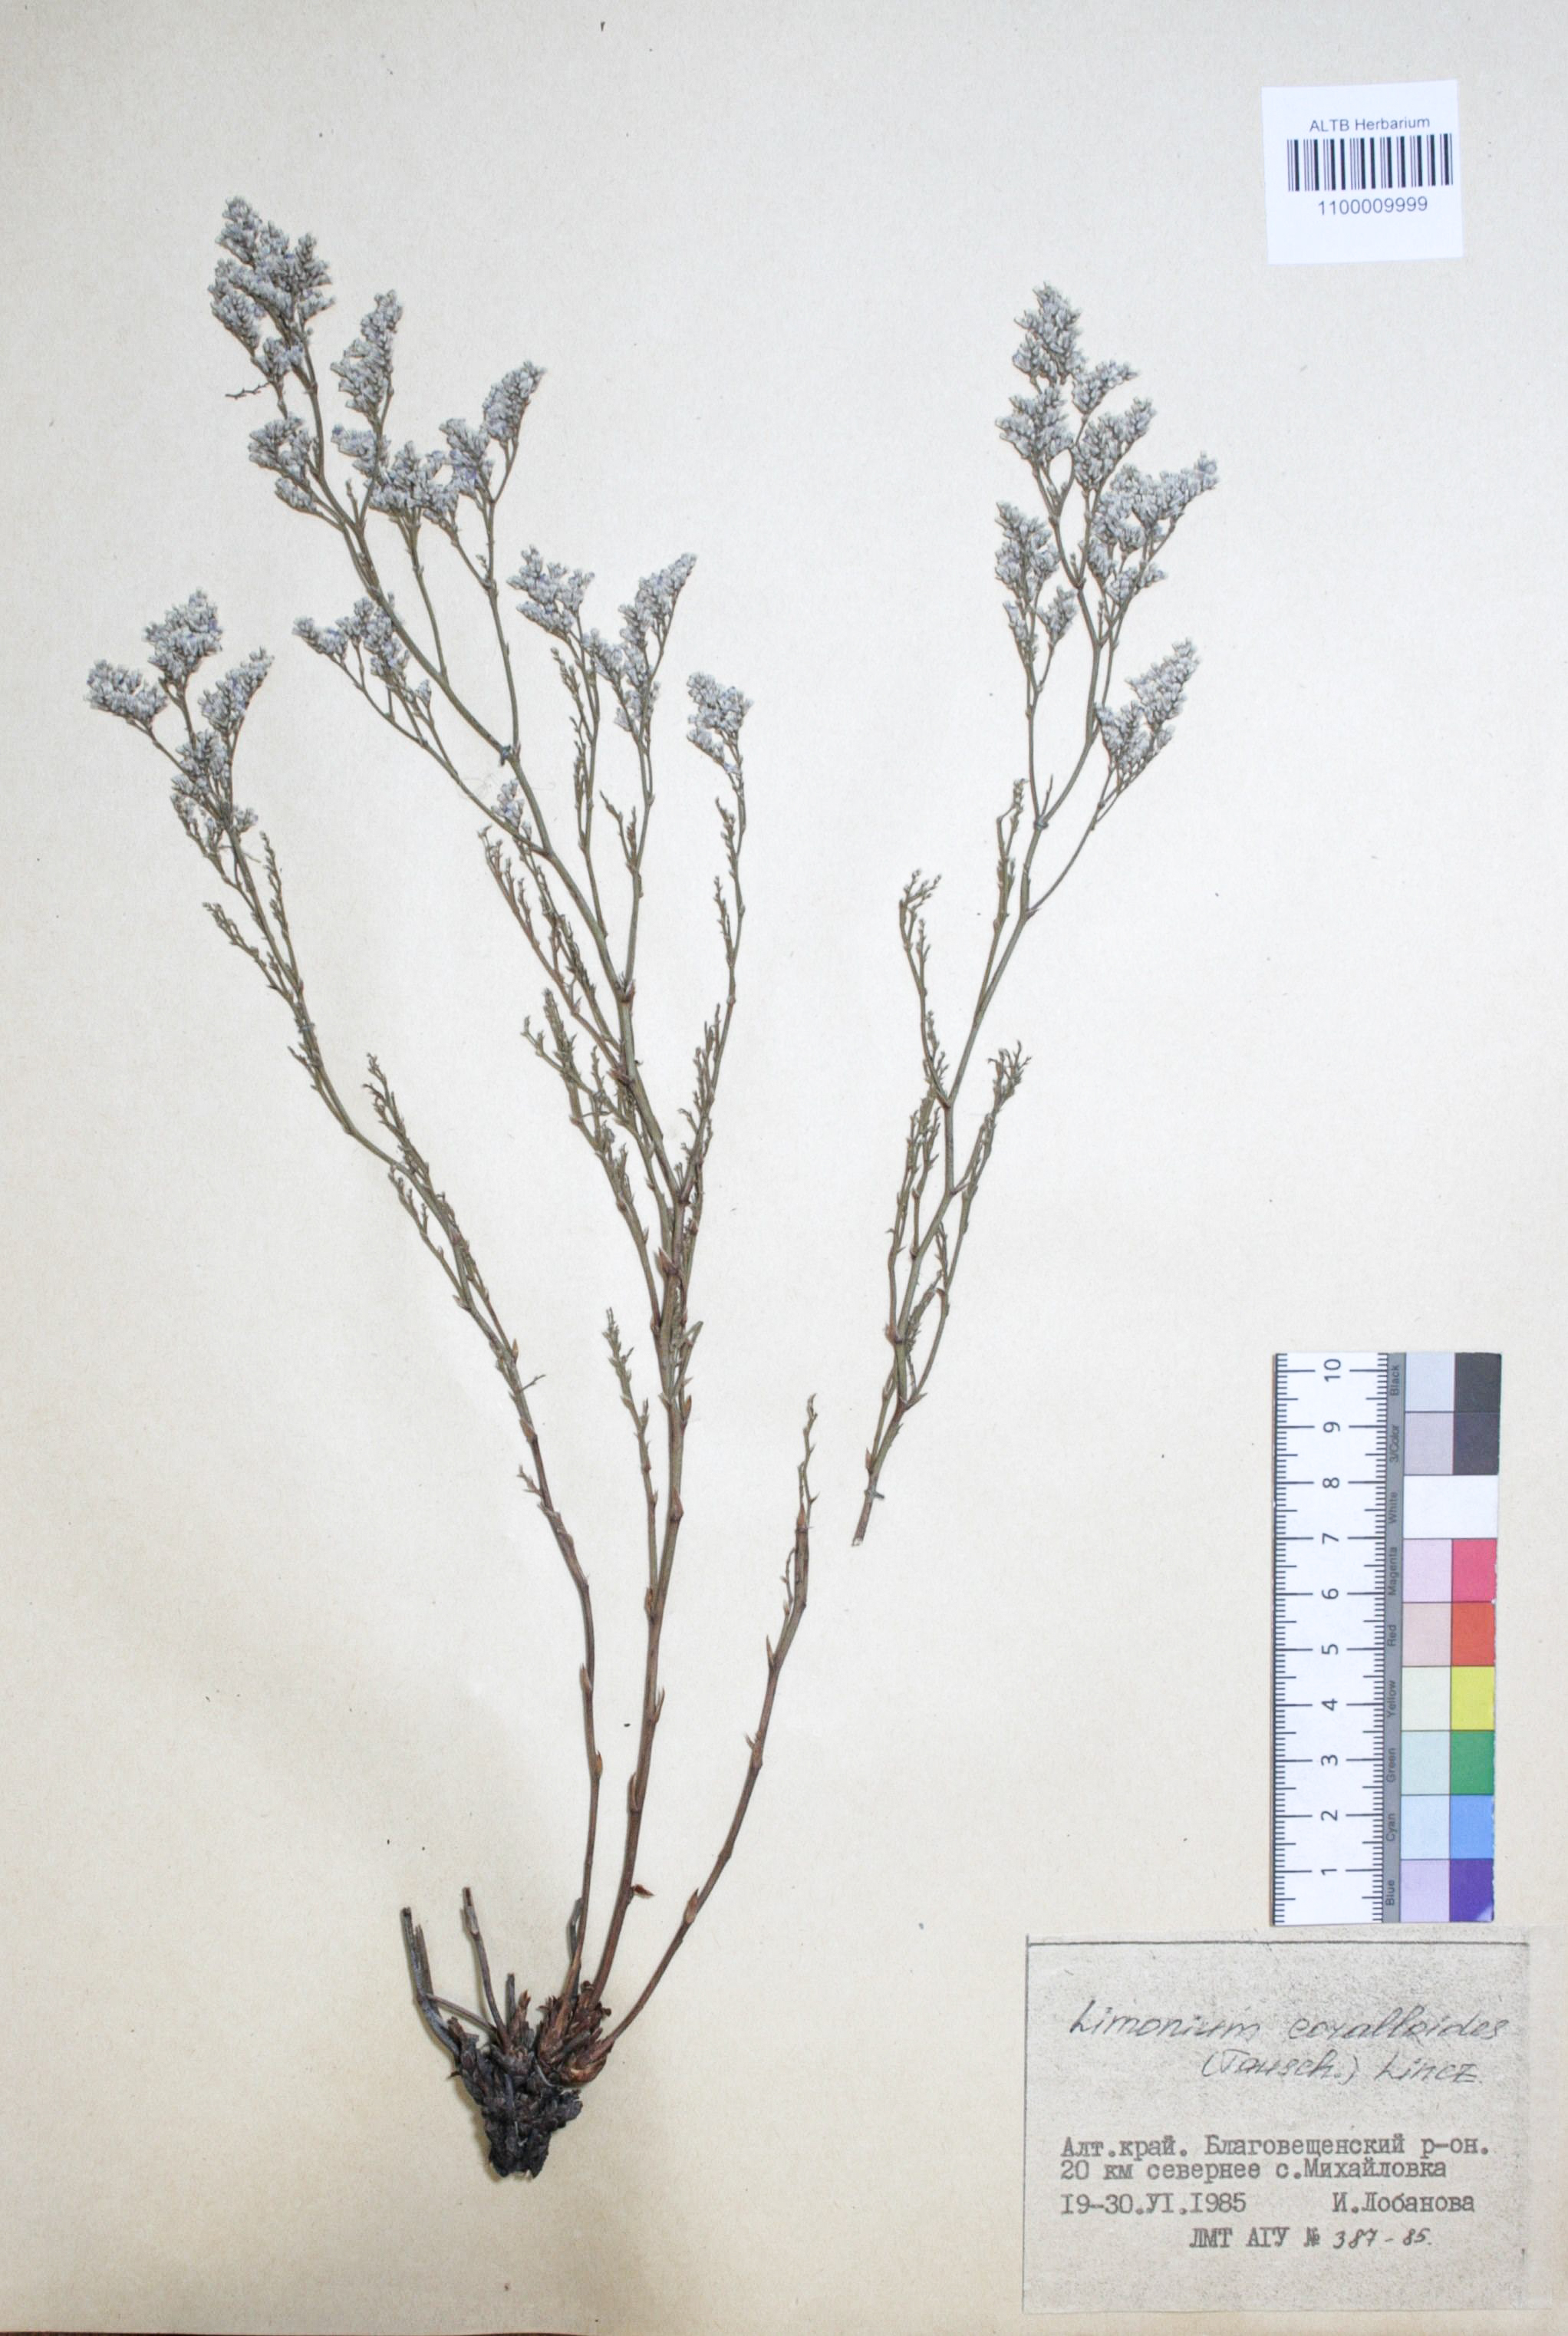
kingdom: Plantae
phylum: Tracheophyta
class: Magnoliopsida
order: Caryophyllales
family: Plumbaginaceae
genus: Limonium
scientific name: Limonium coralloides
